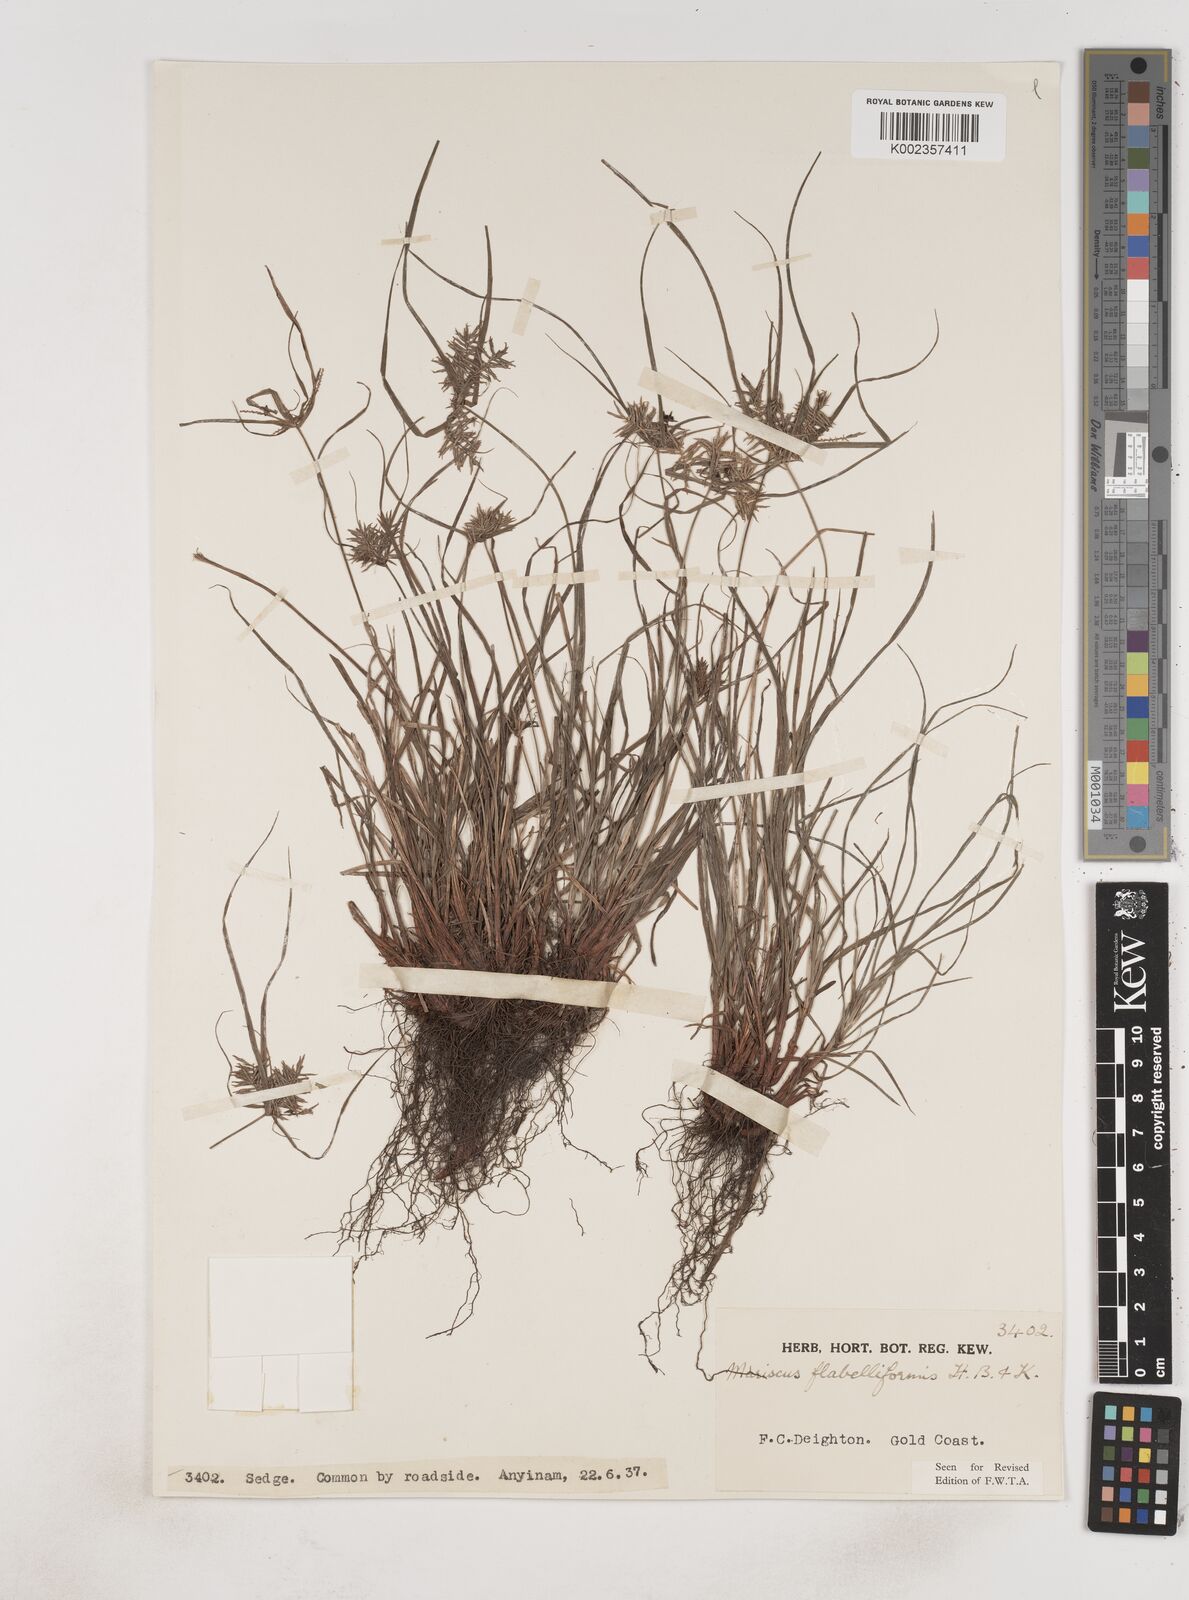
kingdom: Plantae
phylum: Tracheophyta
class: Liliopsida
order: Poales
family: Cyperaceae
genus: Cyperus
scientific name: Cyperus tenuis
